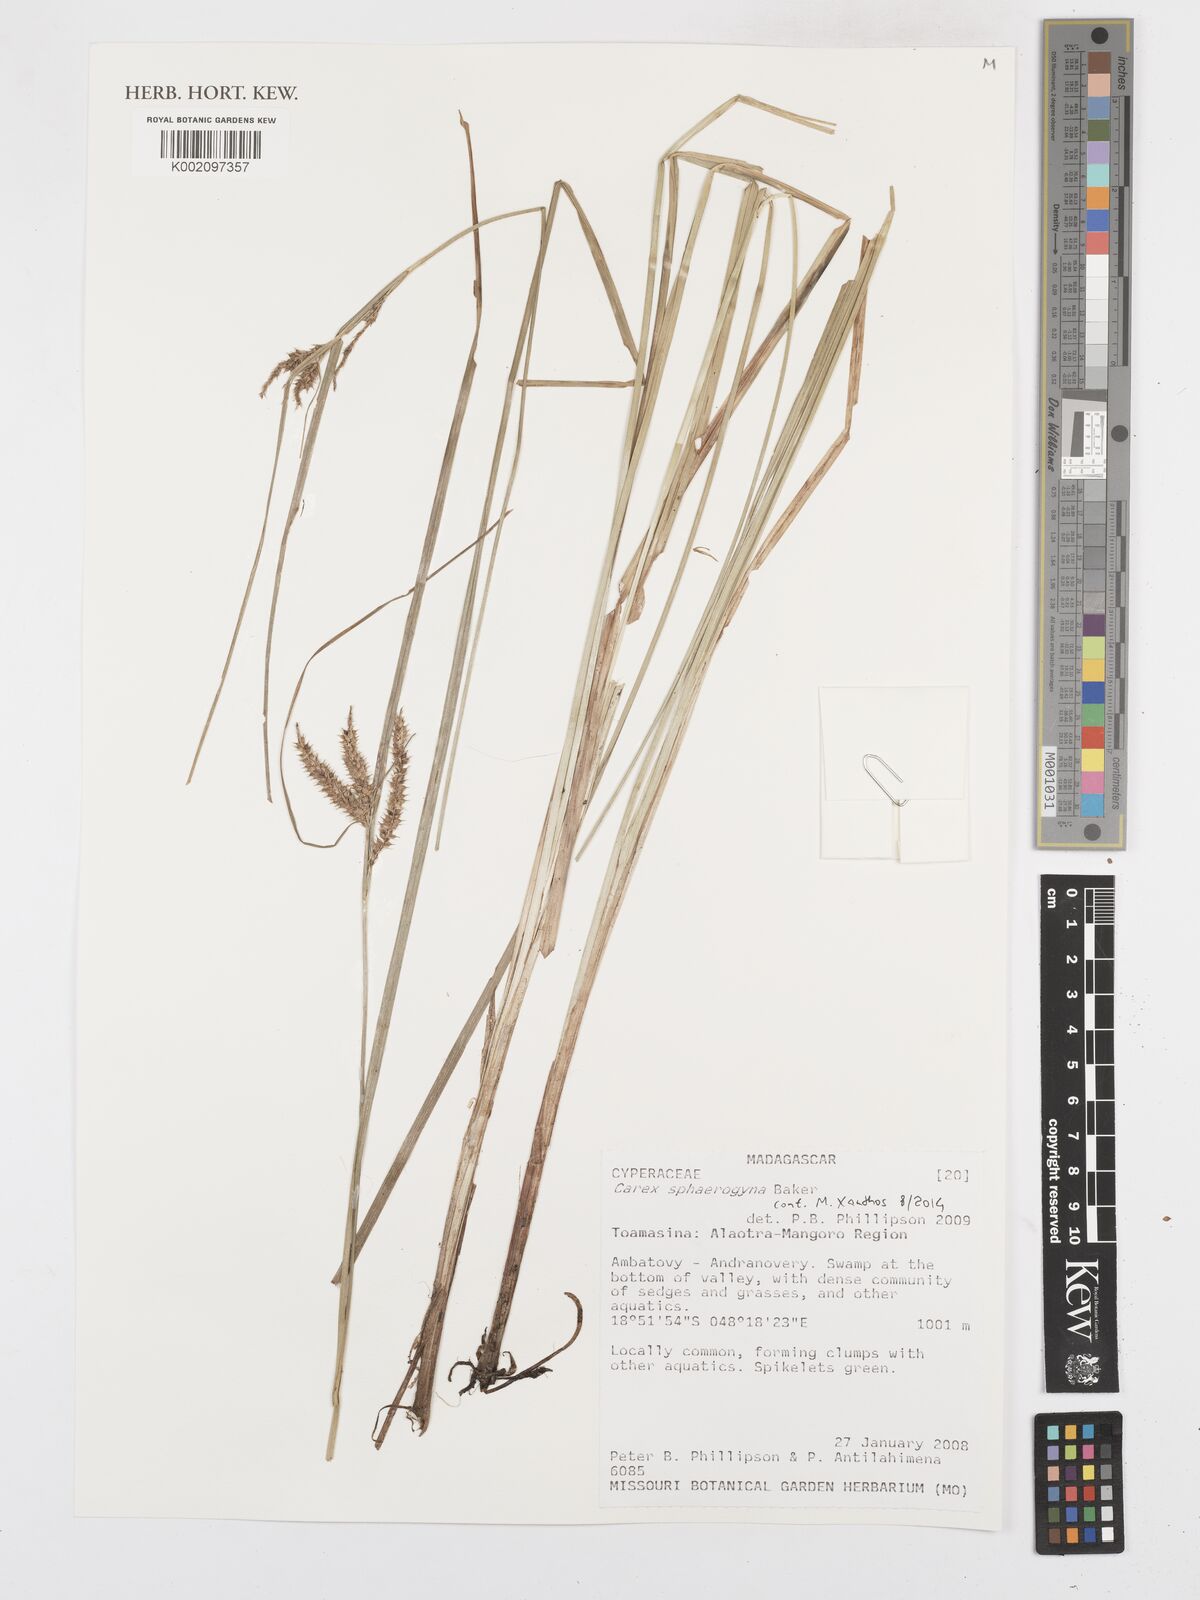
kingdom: Plantae
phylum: Tracheophyta
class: Liliopsida
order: Poales
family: Cyperaceae
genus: Carex
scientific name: Carex sphaerogyna
